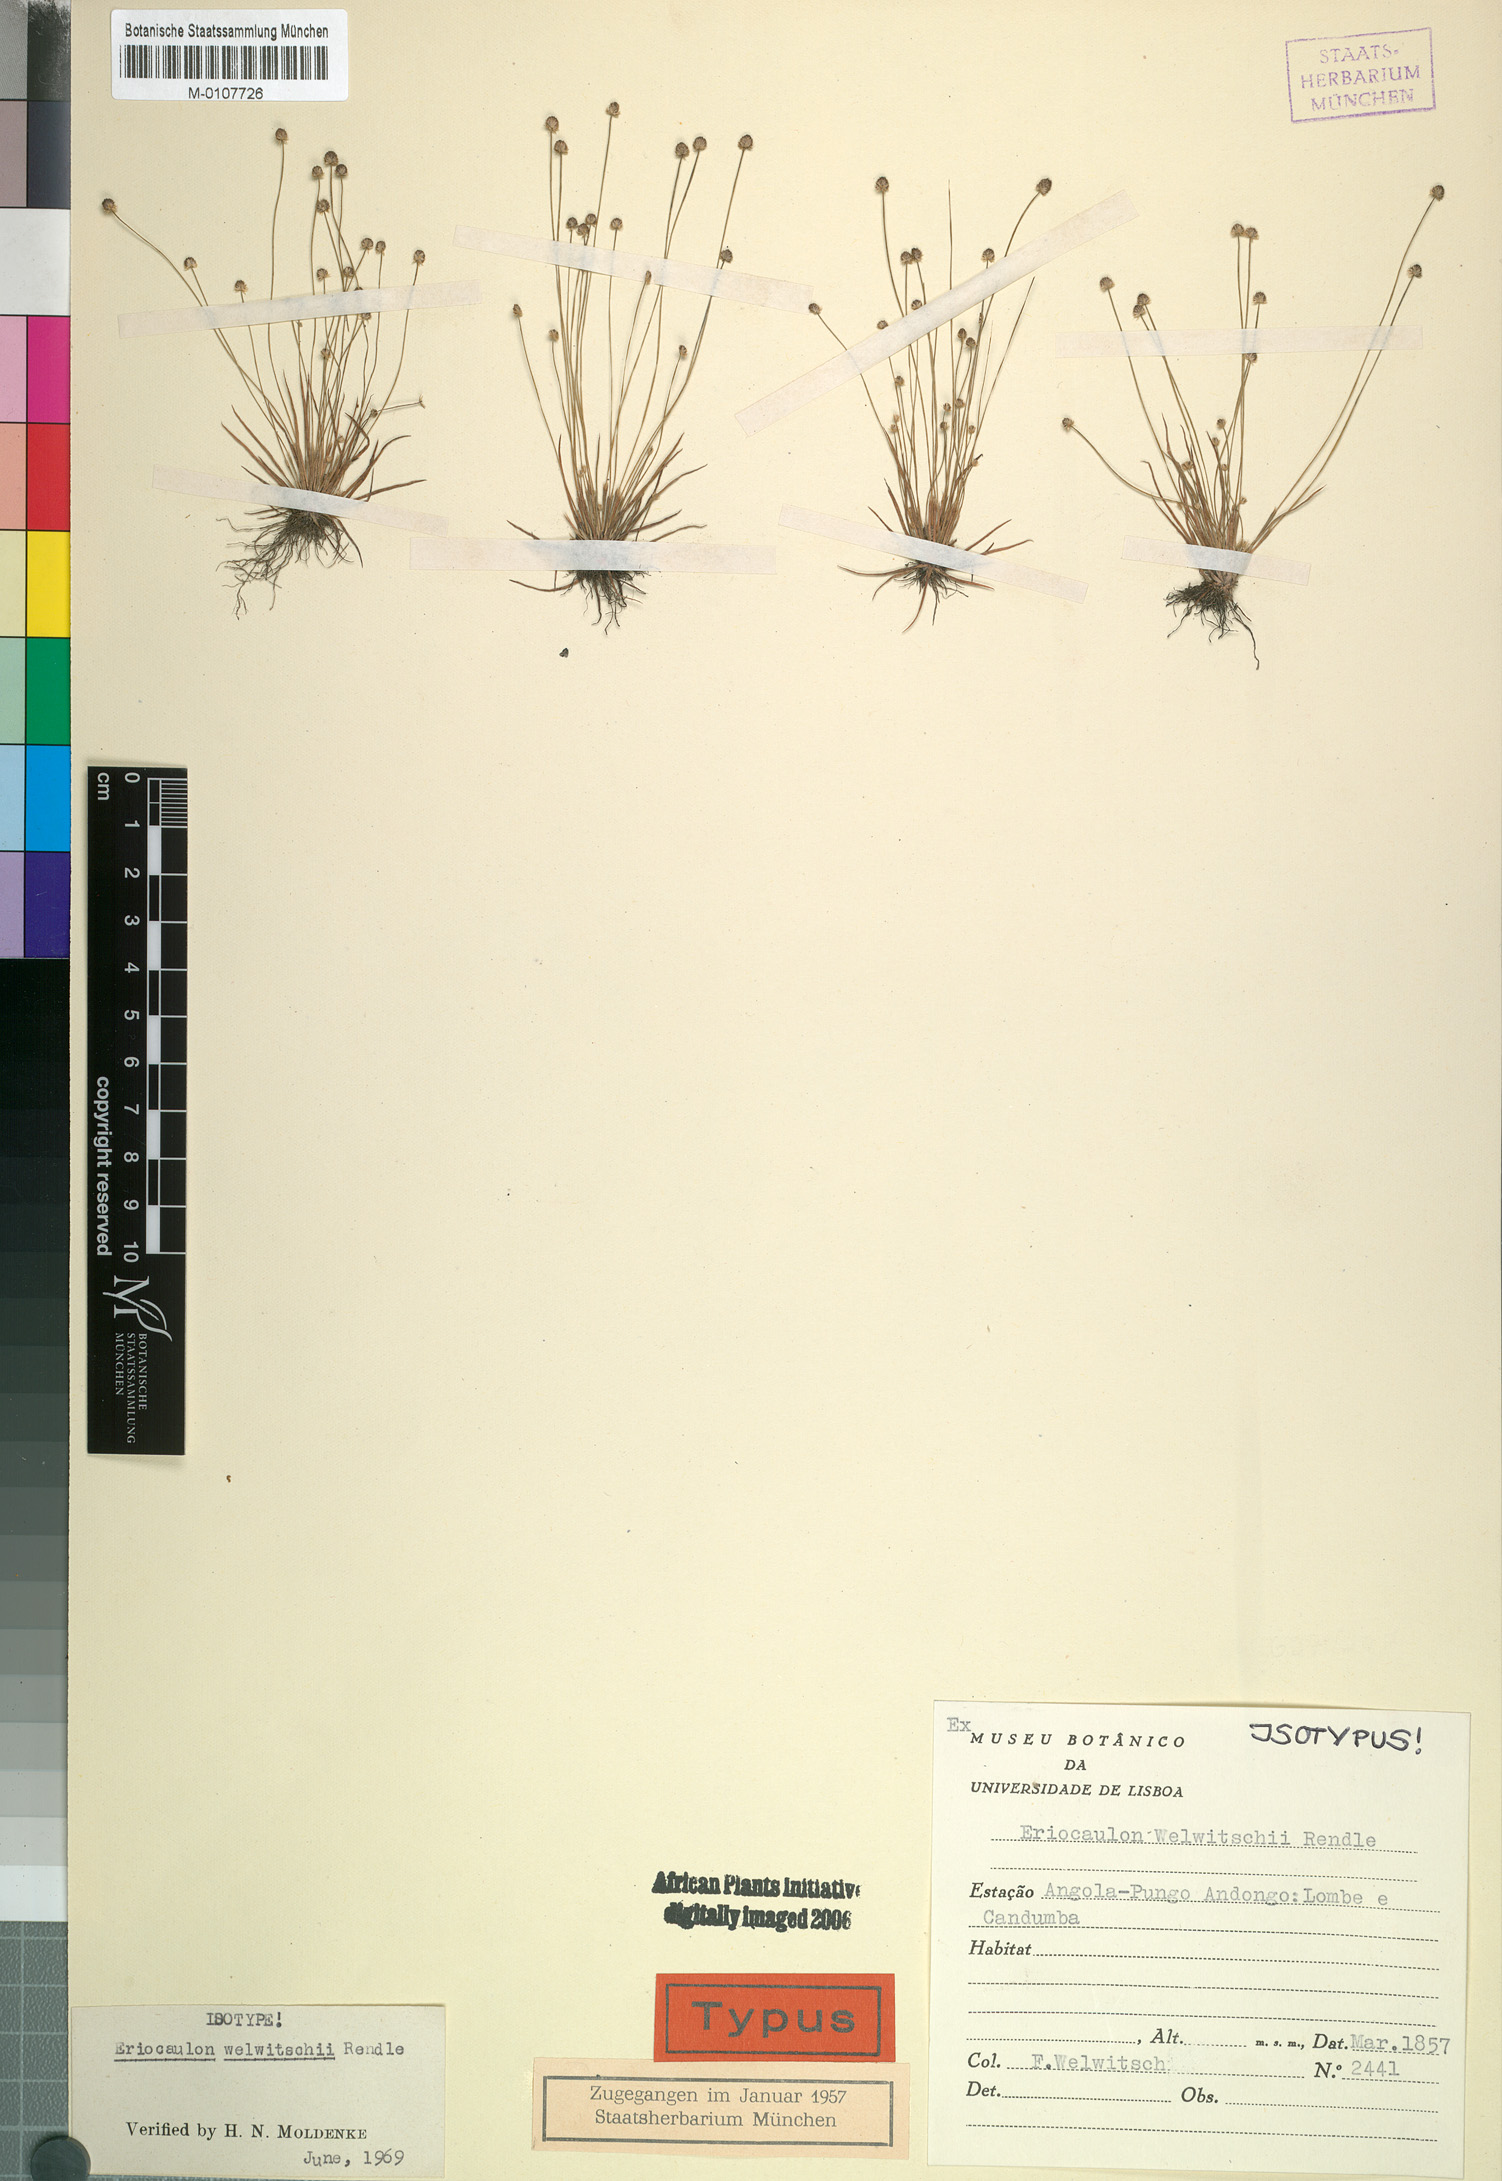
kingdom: Plantae
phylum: Tracheophyta
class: Liliopsida
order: Poales
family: Eriocaulaceae
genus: Eriocaulon
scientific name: Eriocaulon welwitschii
